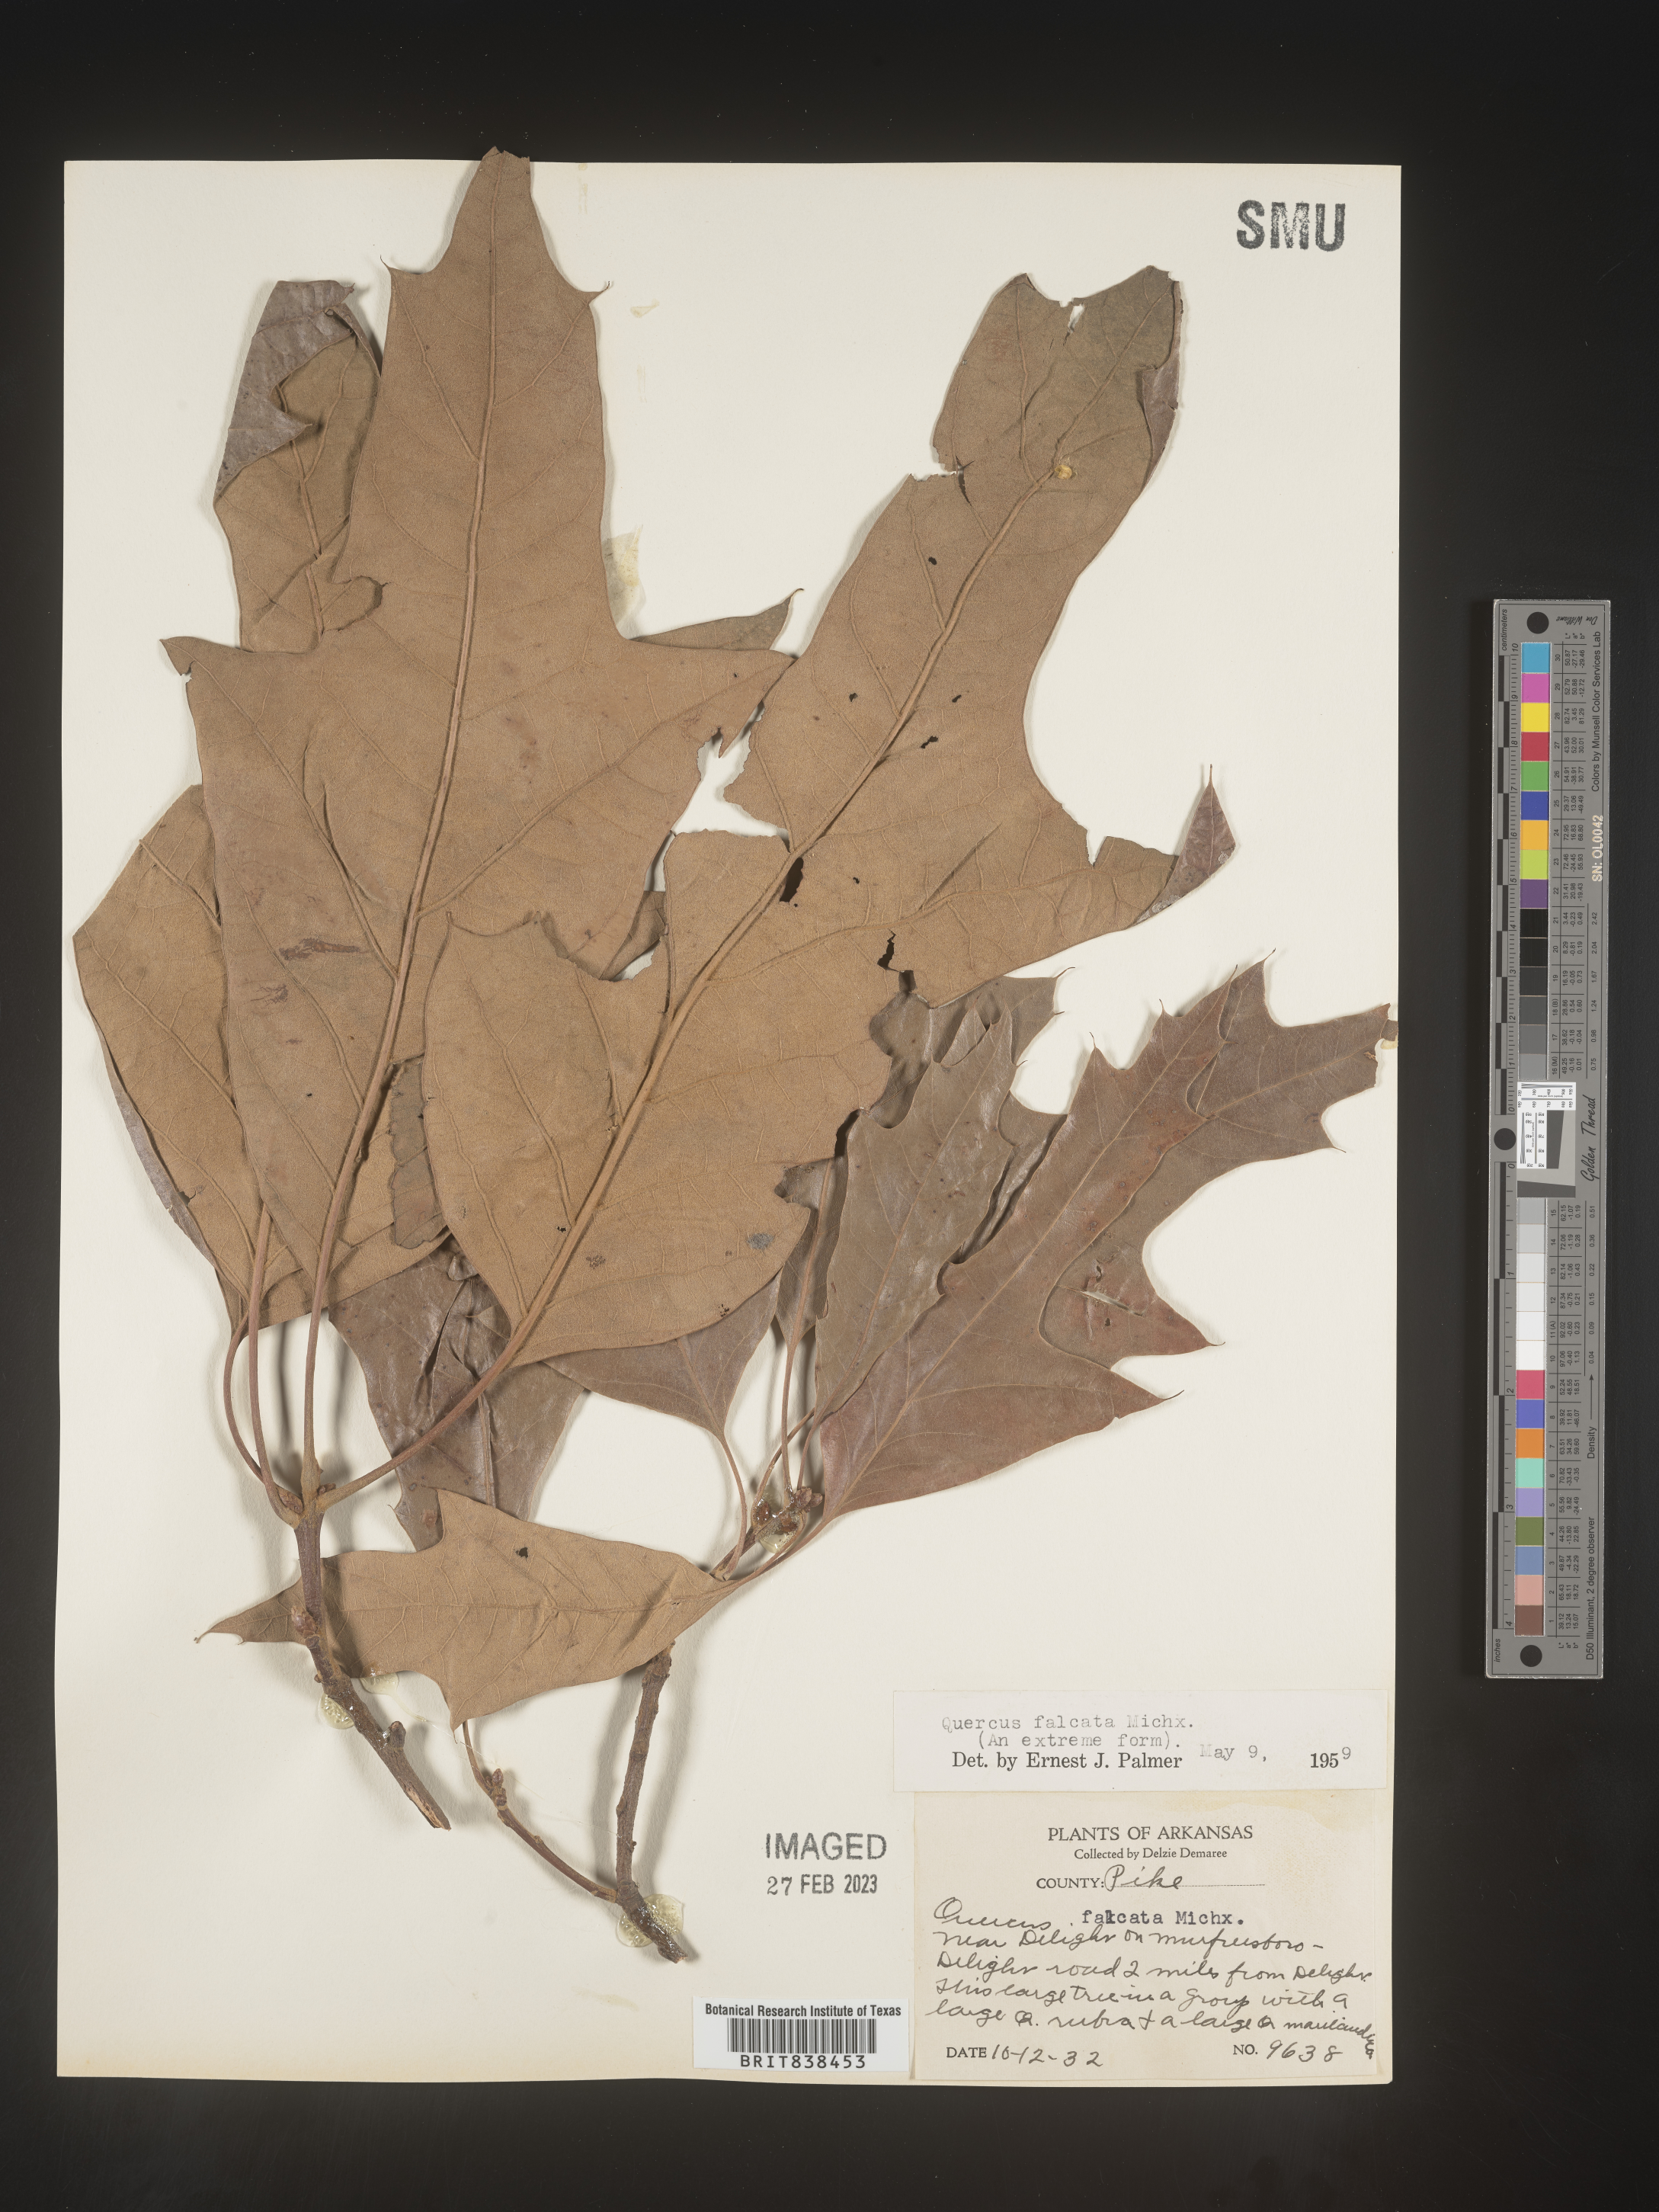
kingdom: Plantae
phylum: Tracheophyta
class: Magnoliopsida
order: Fagales
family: Fagaceae
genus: Quercus
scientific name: Quercus falcata
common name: Southern red oak
